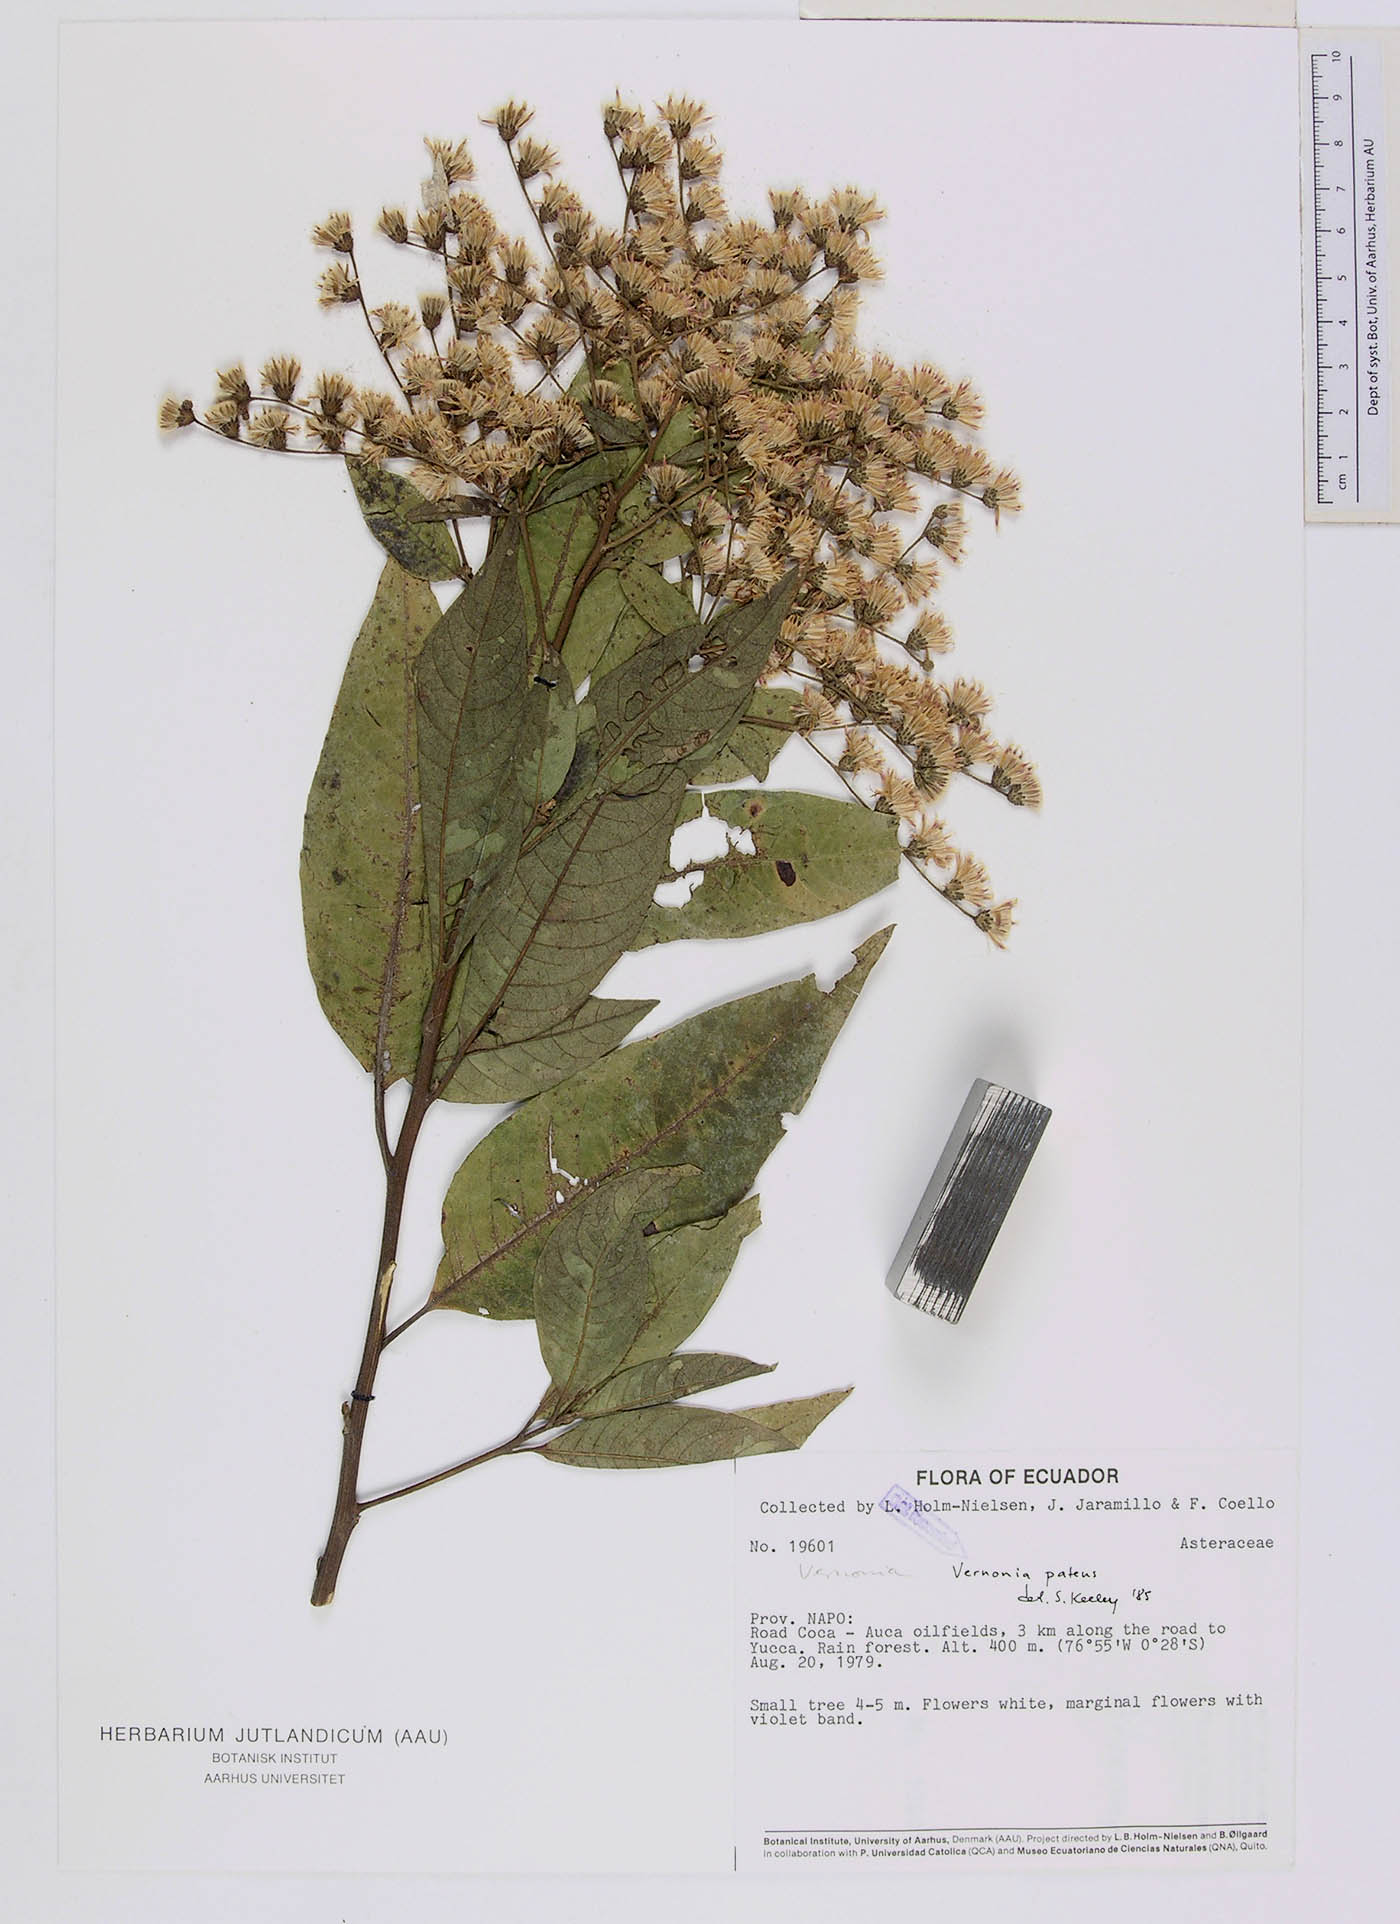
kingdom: Plantae
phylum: Tracheophyta
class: Magnoliopsida
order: Asterales
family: Asteraceae
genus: Vernonanthura
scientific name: Vernonanthura patens
